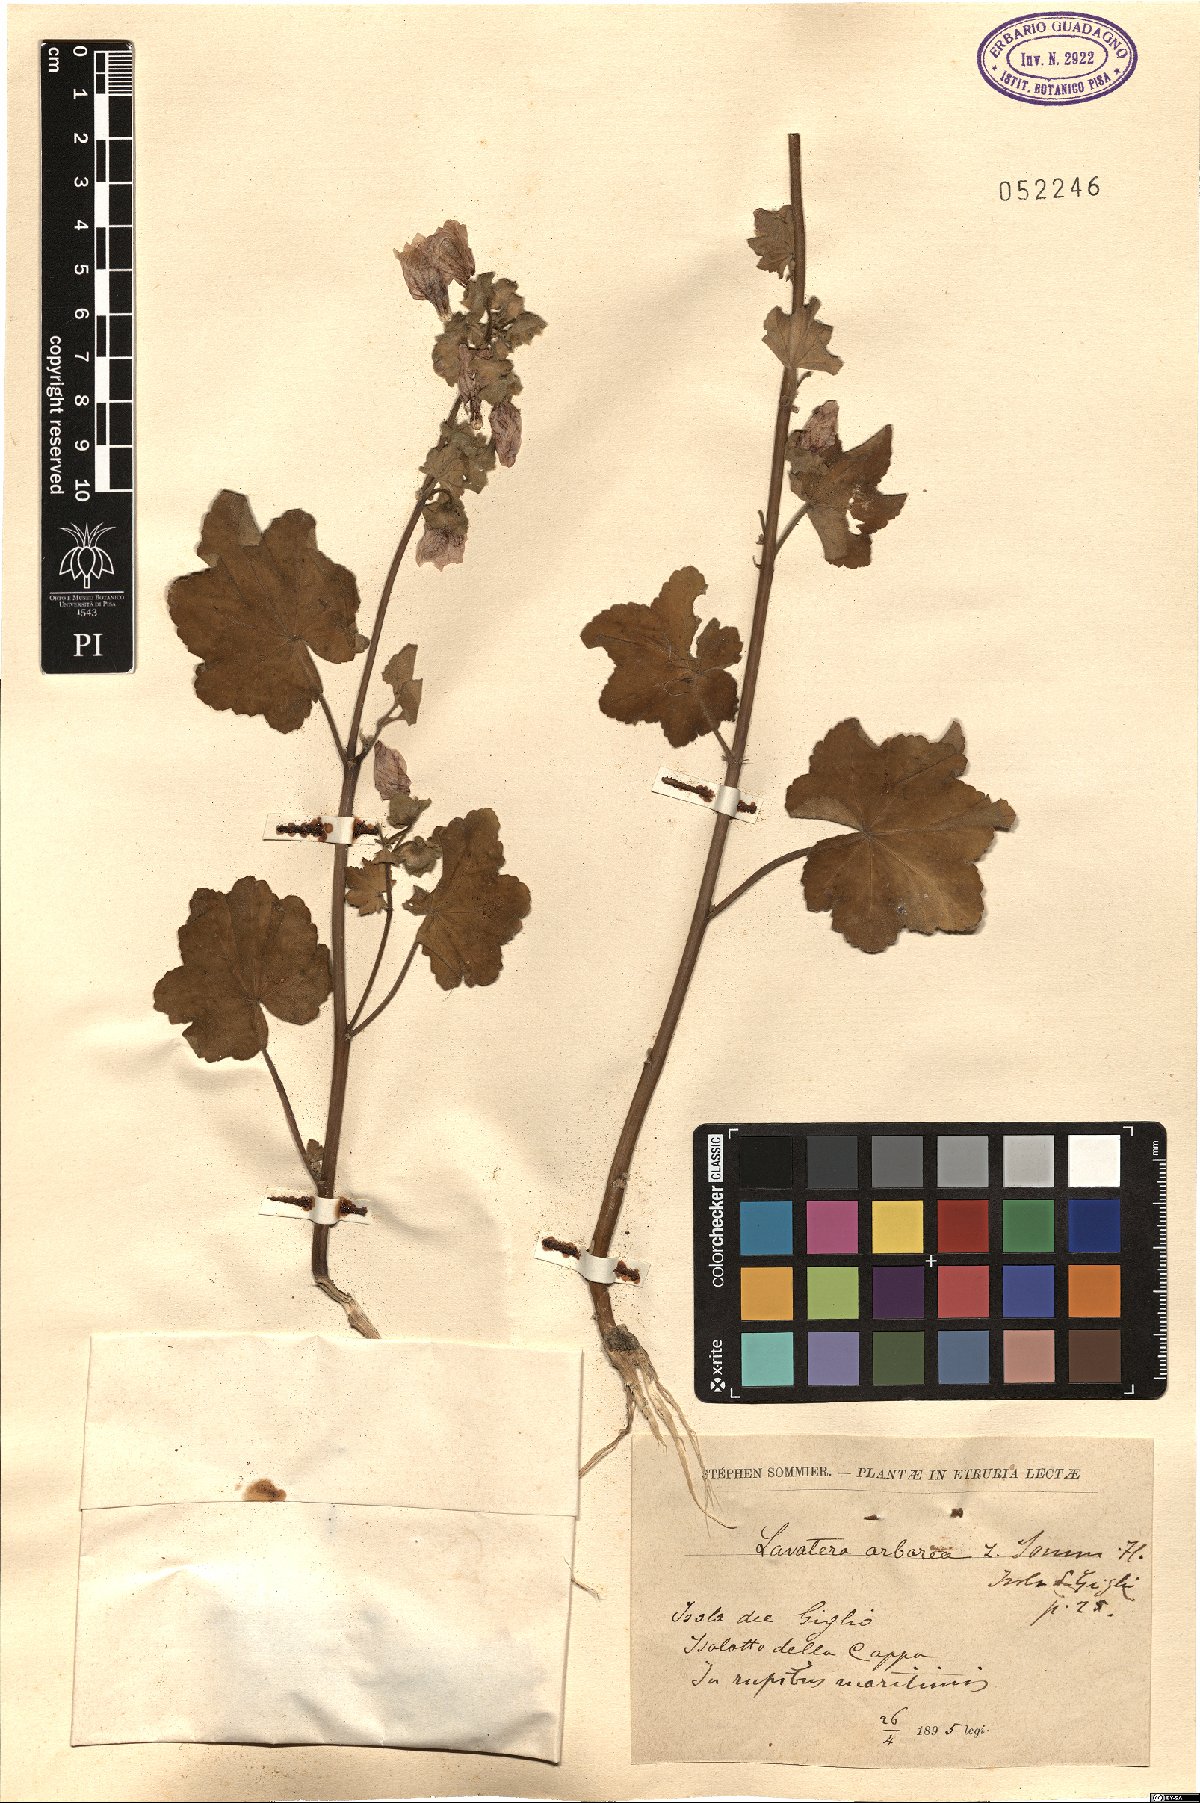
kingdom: Plantae
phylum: Tracheophyta
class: Magnoliopsida
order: Malvales
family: Malvaceae
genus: Malva
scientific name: Malva arborea
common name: Tree mallow
